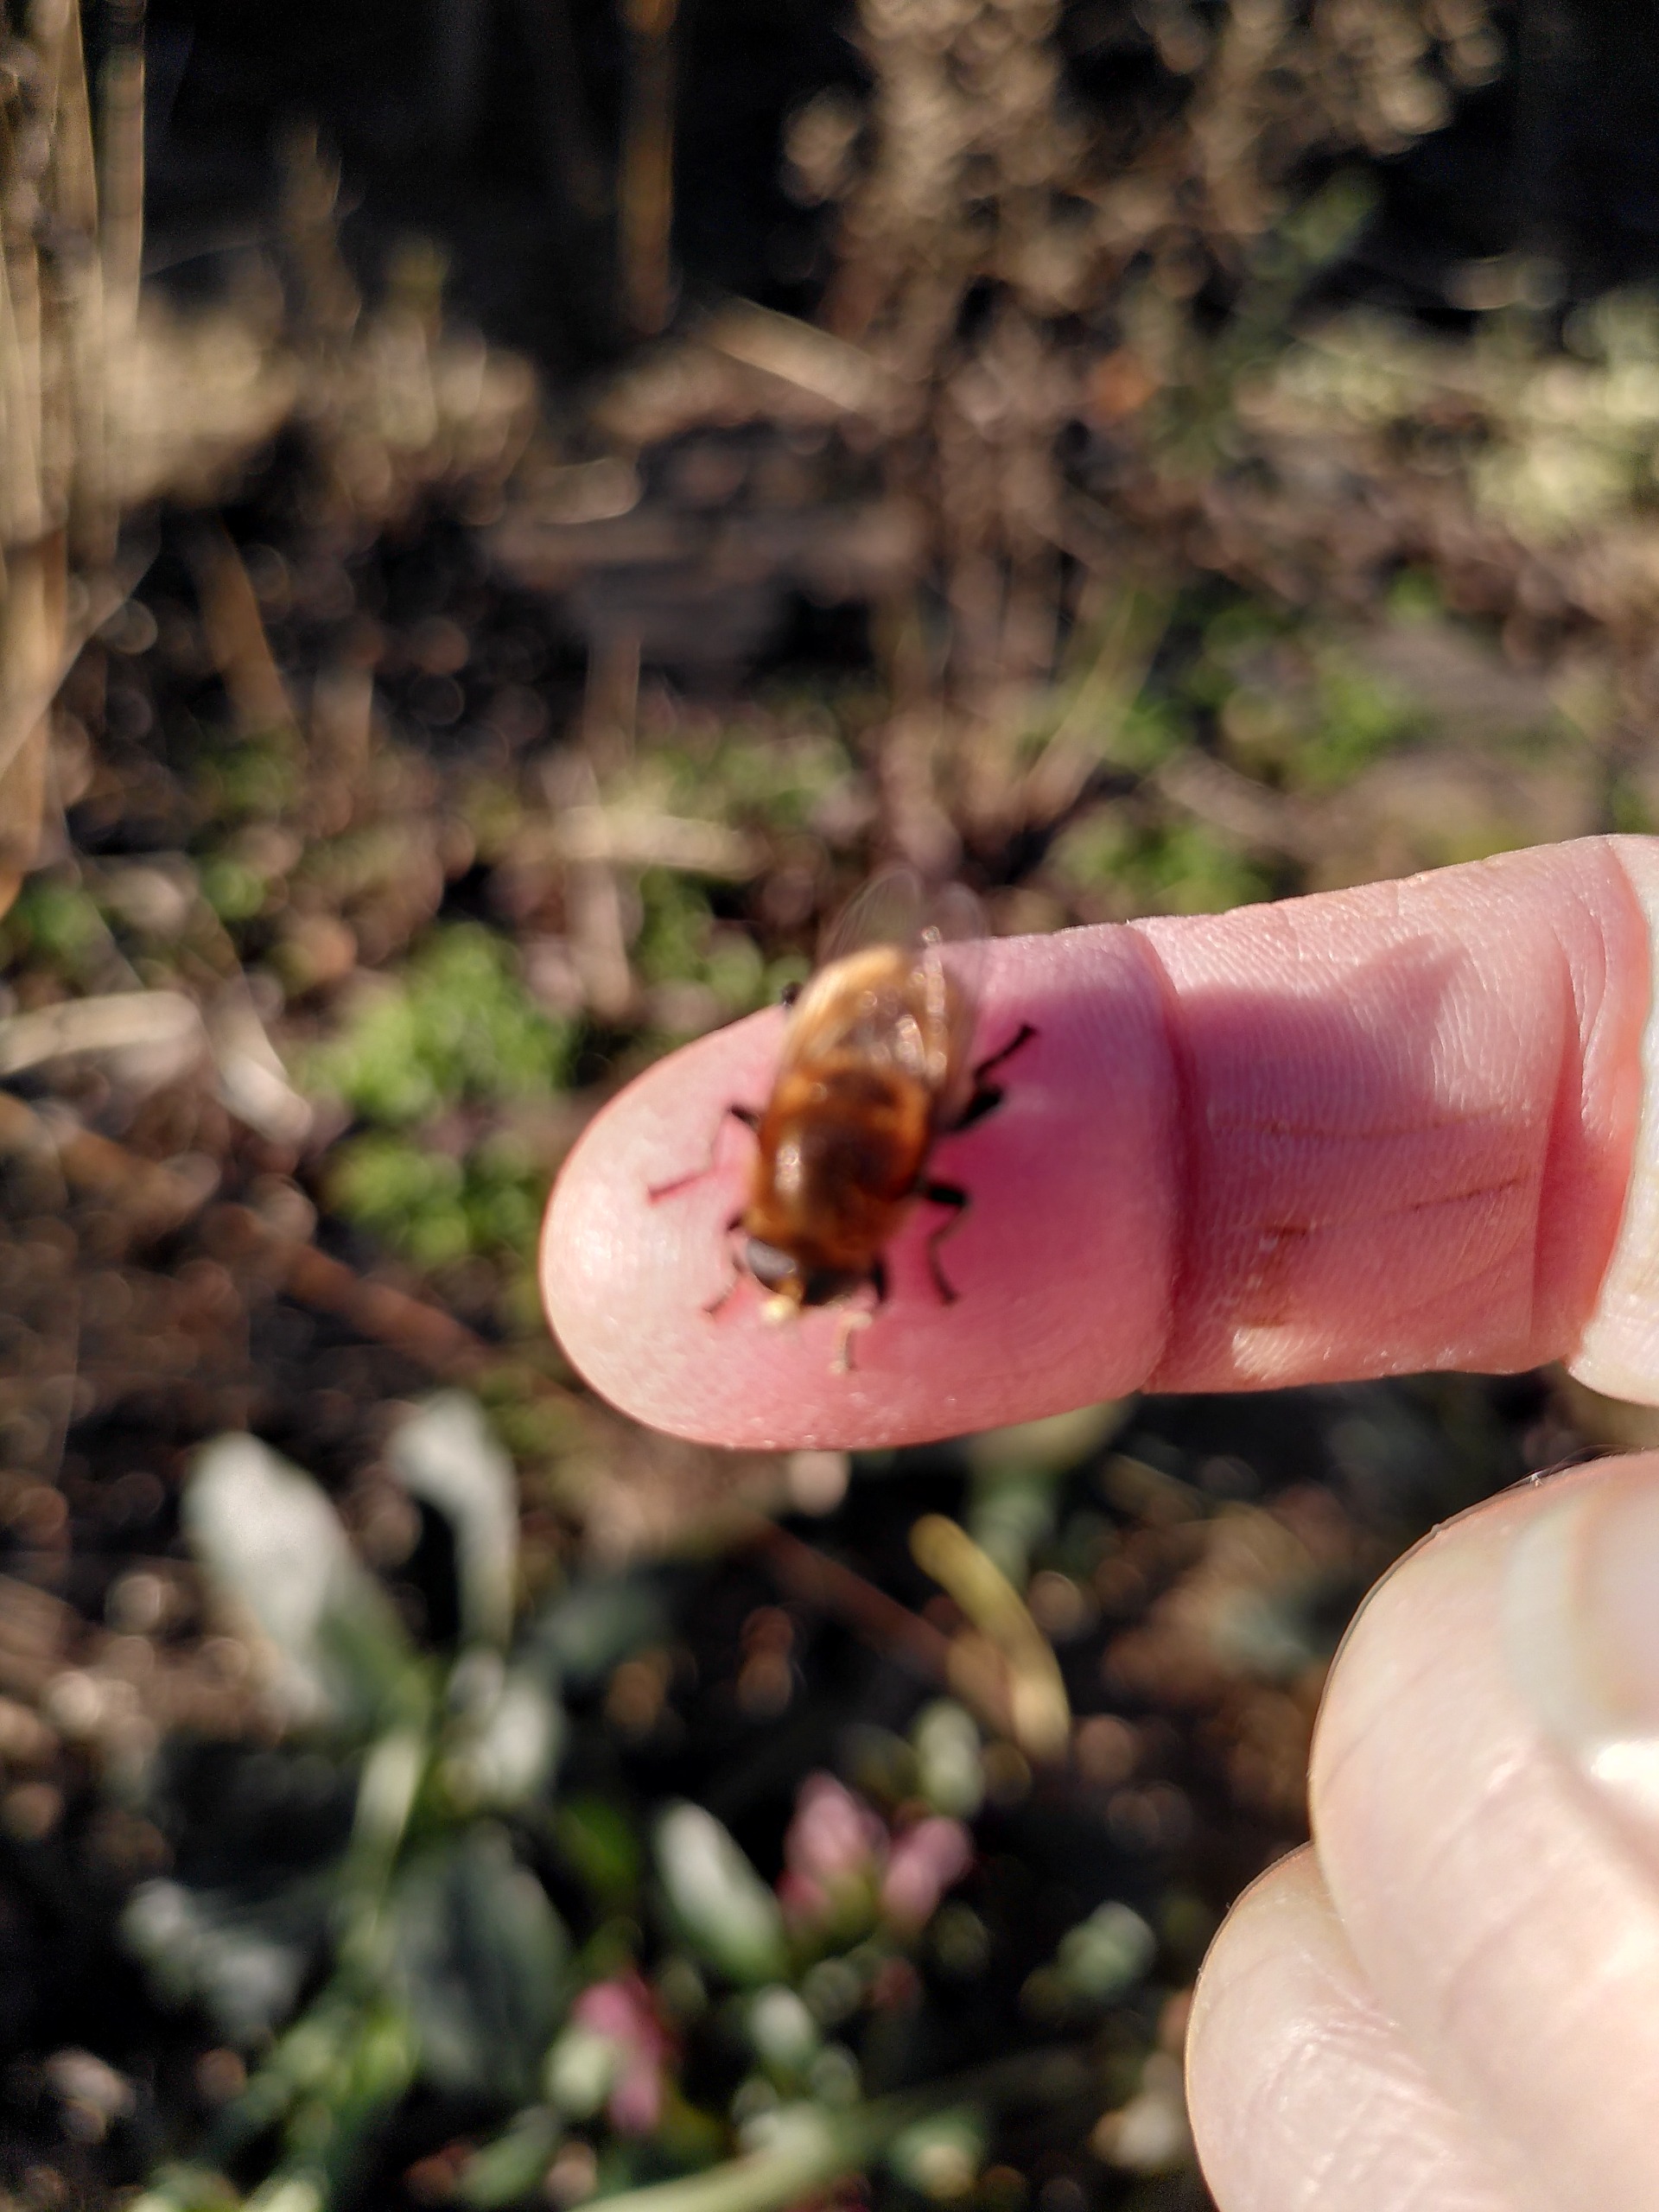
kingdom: Animalia
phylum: Arthropoda
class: Insecta
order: Diptera
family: Syrphidae
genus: Merodon
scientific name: Merodon equestris
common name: Stor narcisflue
